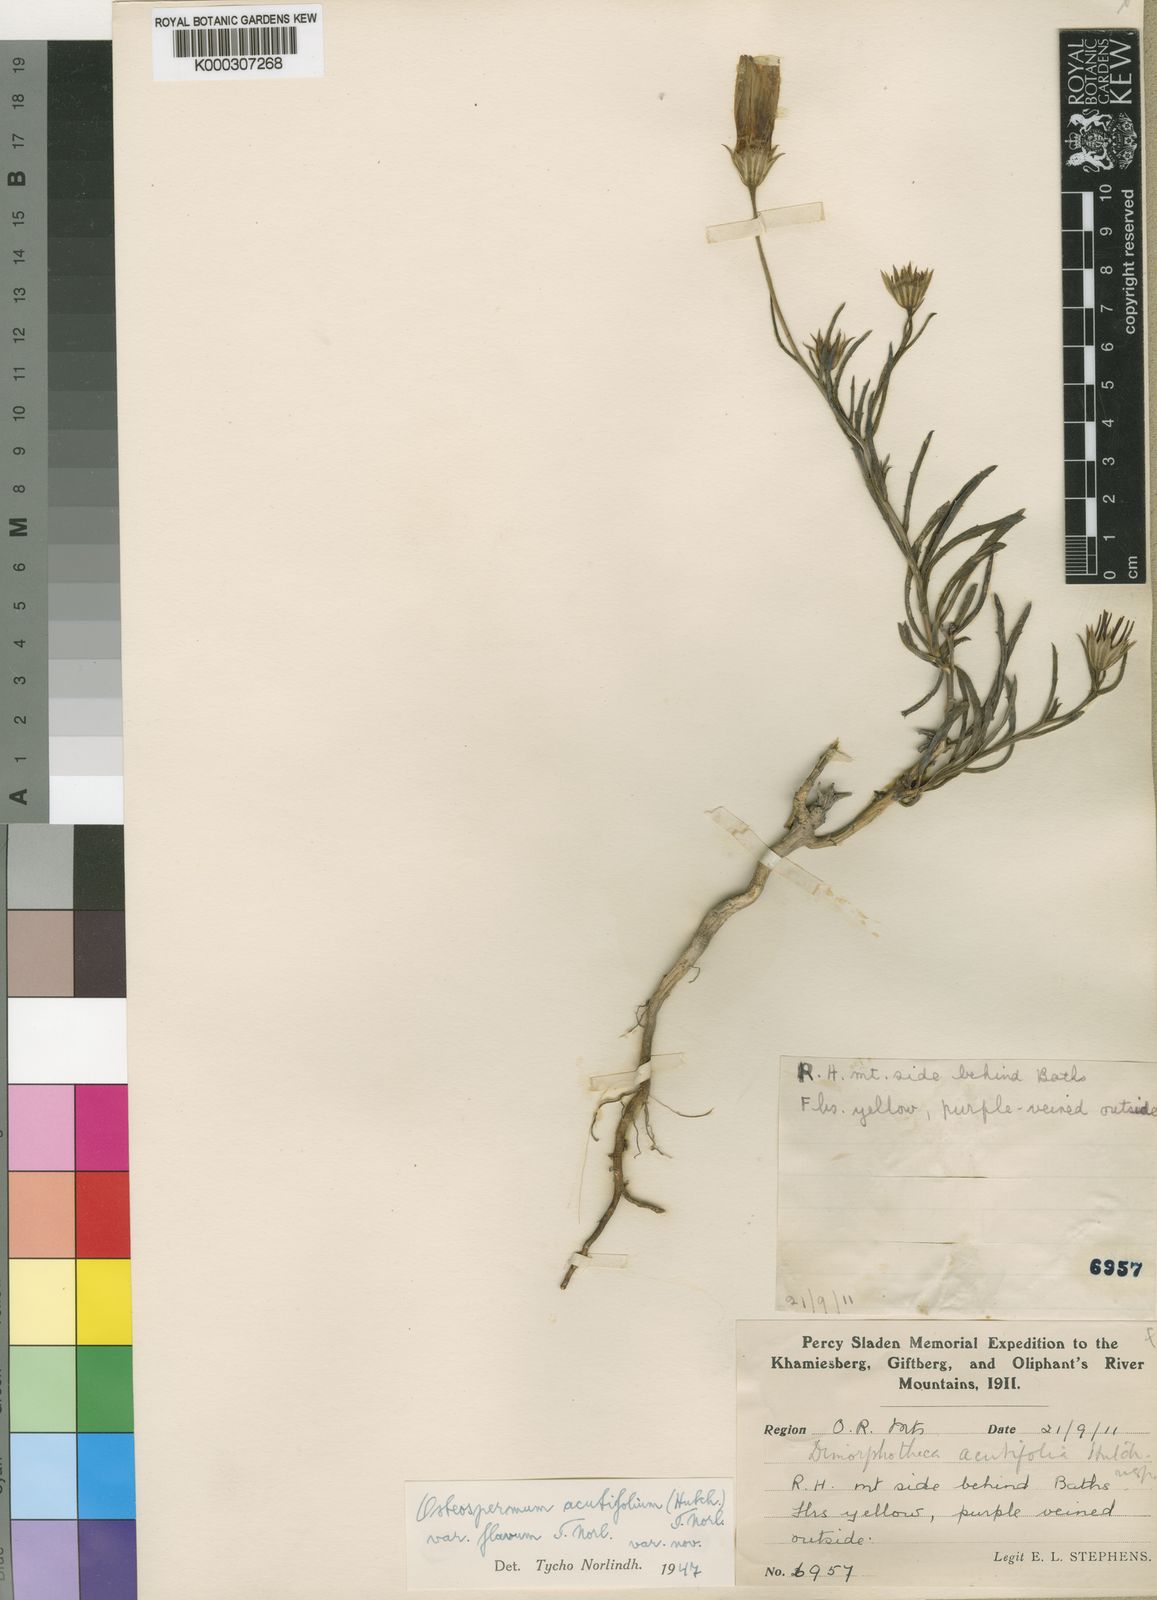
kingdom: Plantae
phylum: Tracheophyta
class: Magnoliopsida
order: Asterales
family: Asteraceae
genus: Dimorphotheca
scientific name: Dimorphotheca acutifolia
